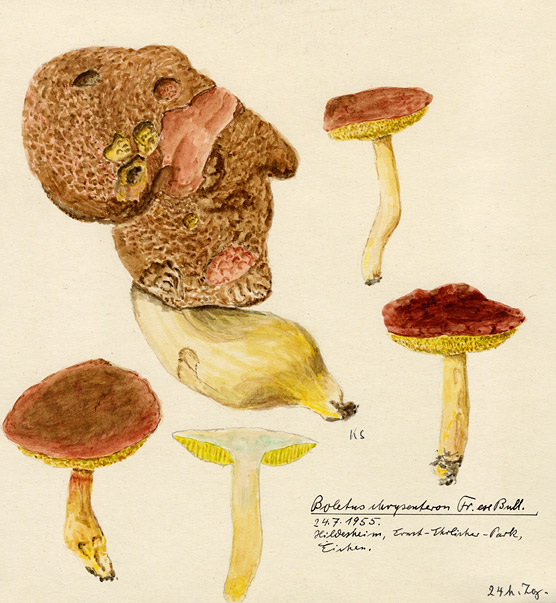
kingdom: Fungi
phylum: Basidiomycota
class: Agaricomycetes
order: Boletales
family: Boletaceae
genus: Xerocomellus
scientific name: Xerocomellus chrysenteron
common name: Red-cracking bolete
